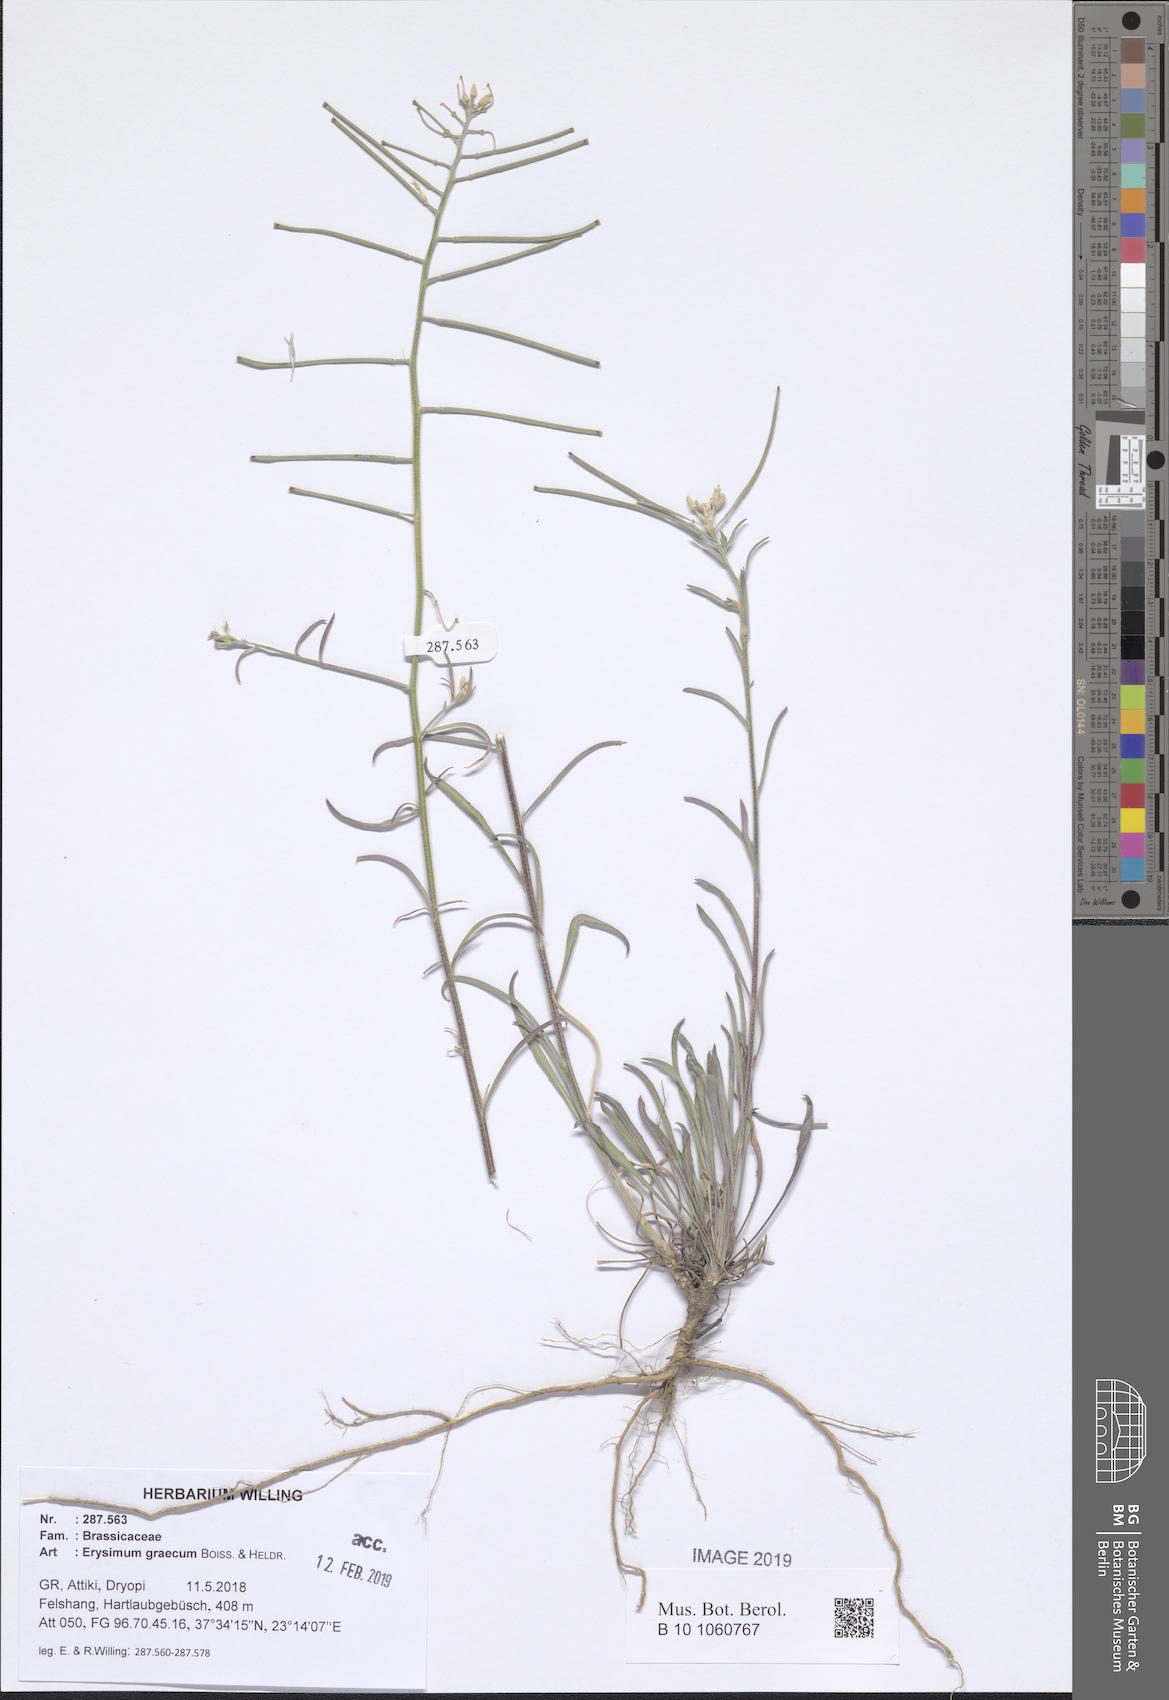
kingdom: Plantae
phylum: Tracheophyta
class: Magnoliopsida
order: Brassicales
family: Brassicaceae
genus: Erysimum
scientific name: Erysimum graecum
